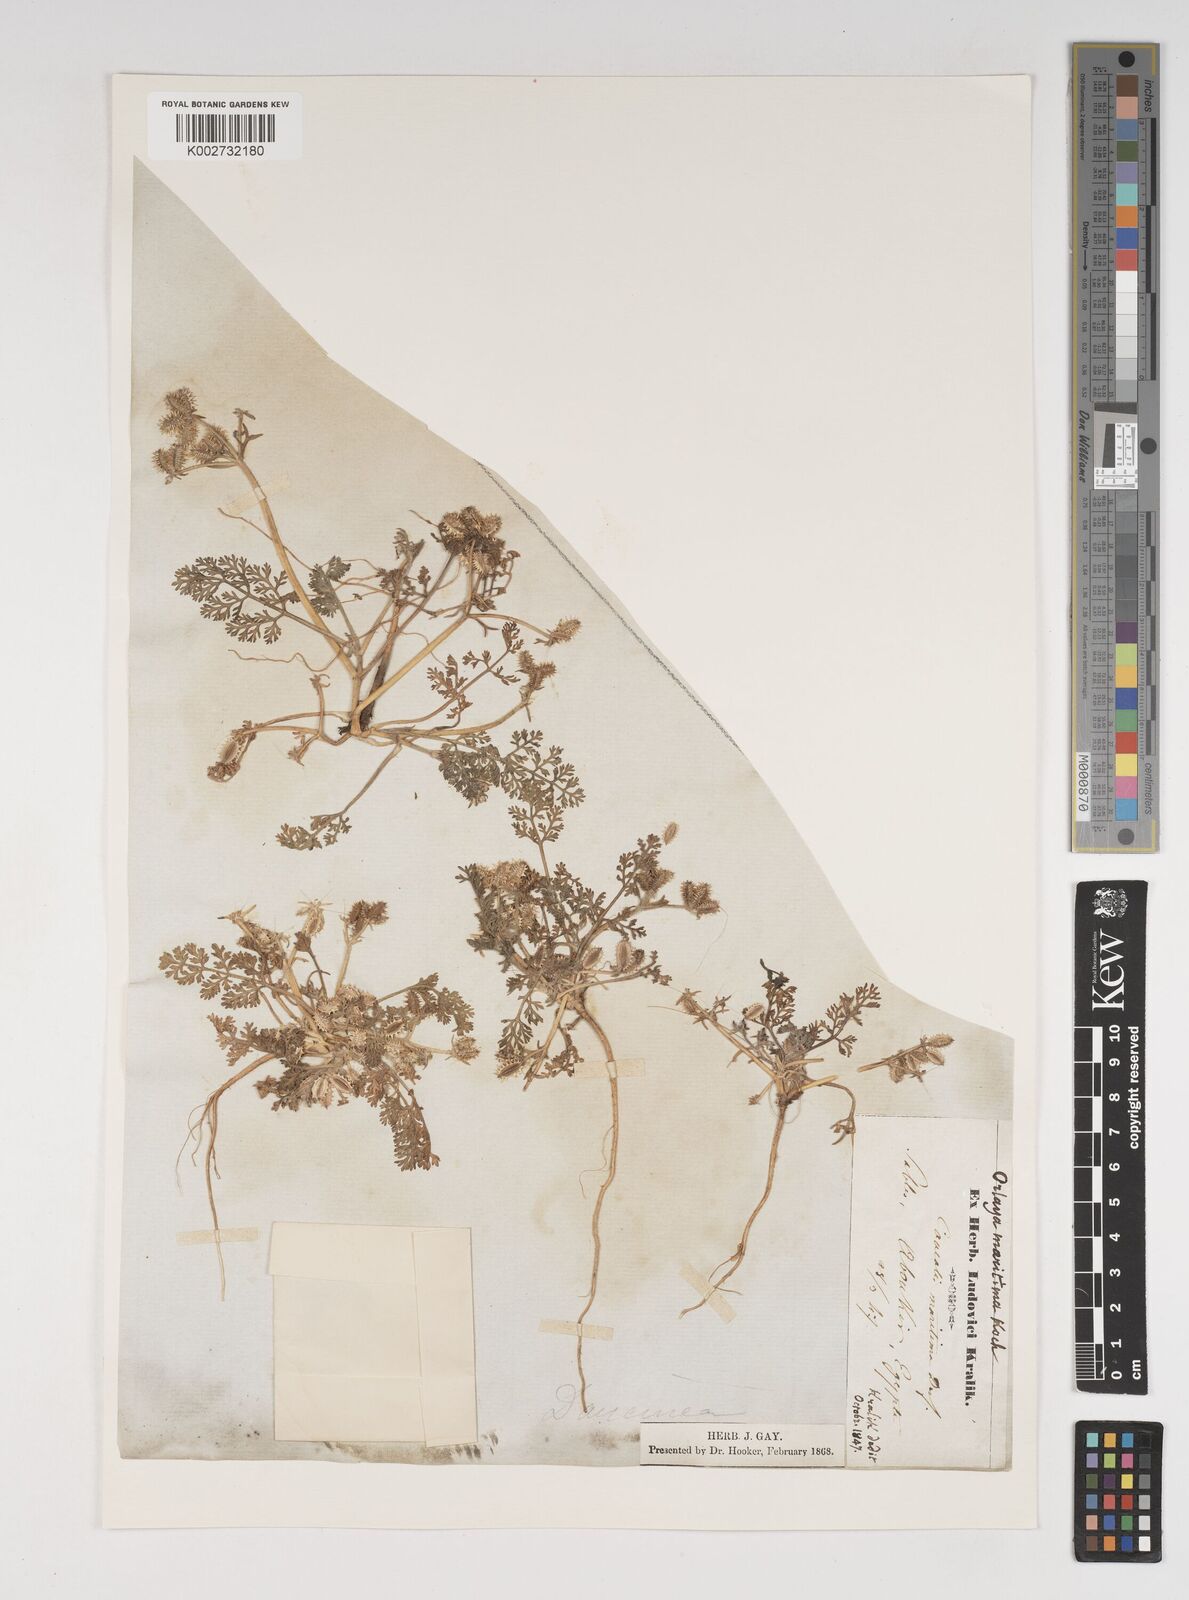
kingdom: Plantae
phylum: Tracheophyta
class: Magnoliopsida
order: Apiales
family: Apiaceae
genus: Daucus
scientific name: Daucus pumilus
